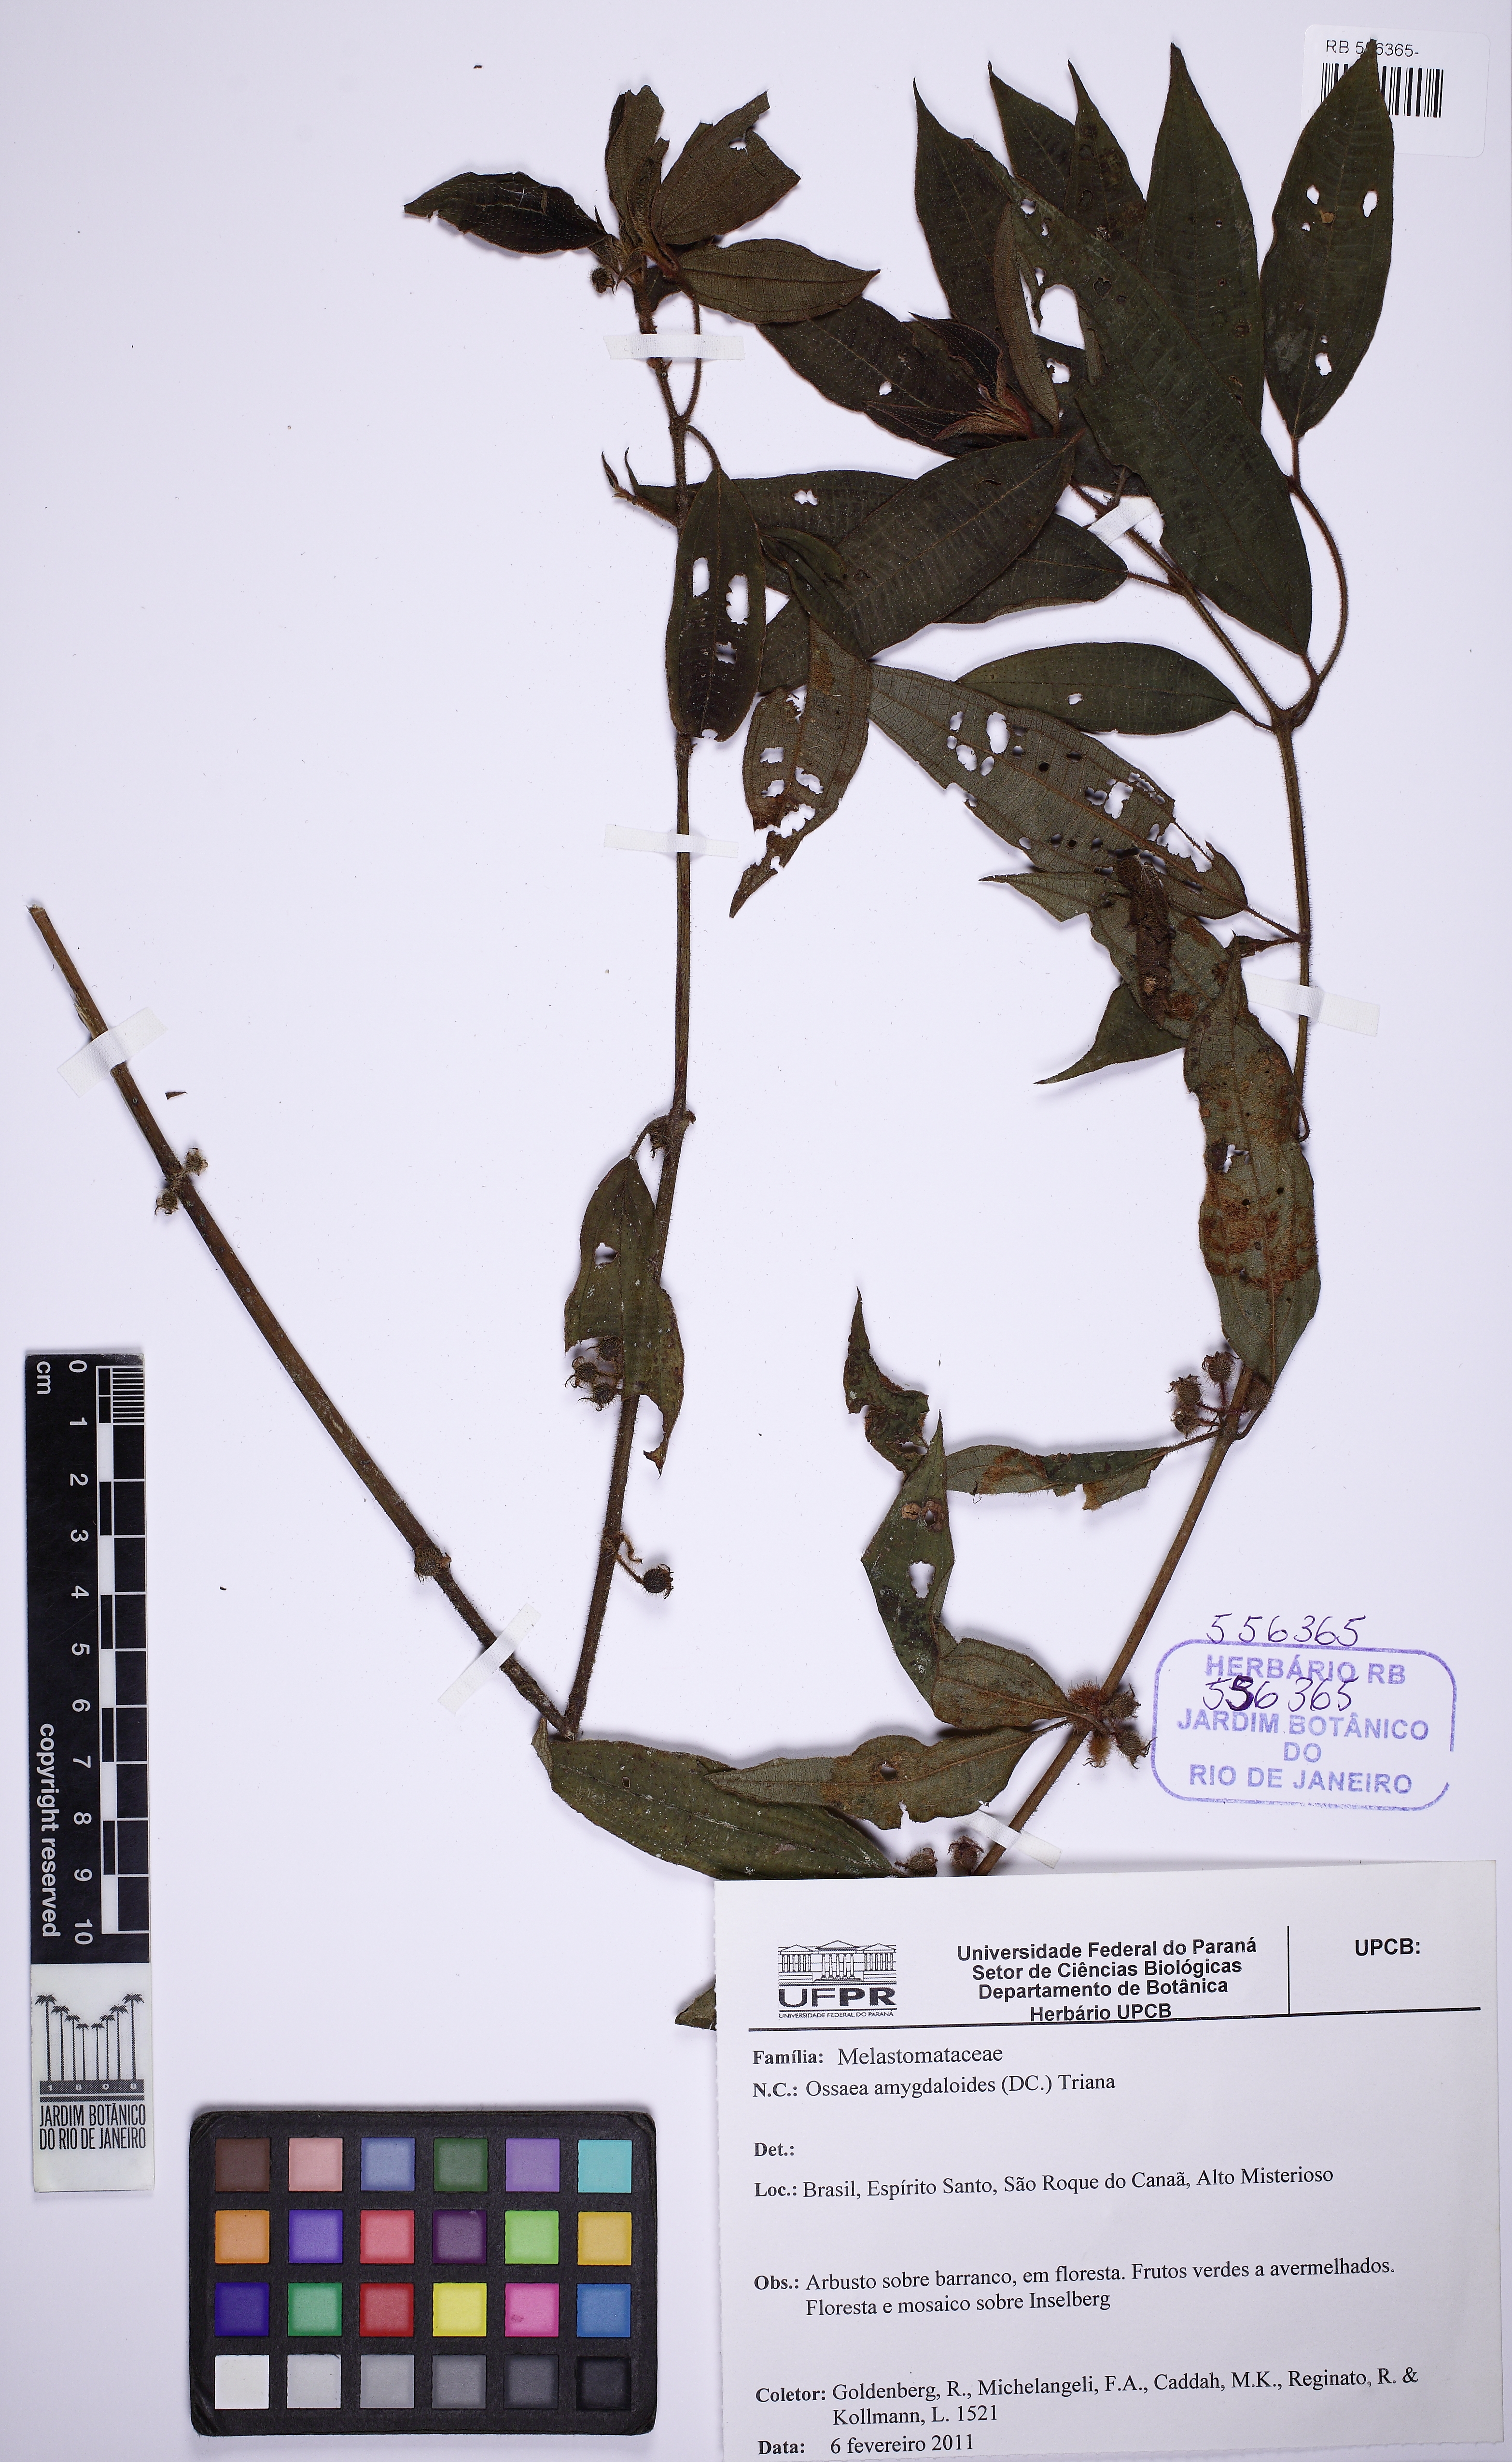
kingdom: Plantae
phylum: Tracheophyta
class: Magnoliopsida
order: Myrtales
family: Melastomataceae
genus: Miconia
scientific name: Miconia amygdaloides
